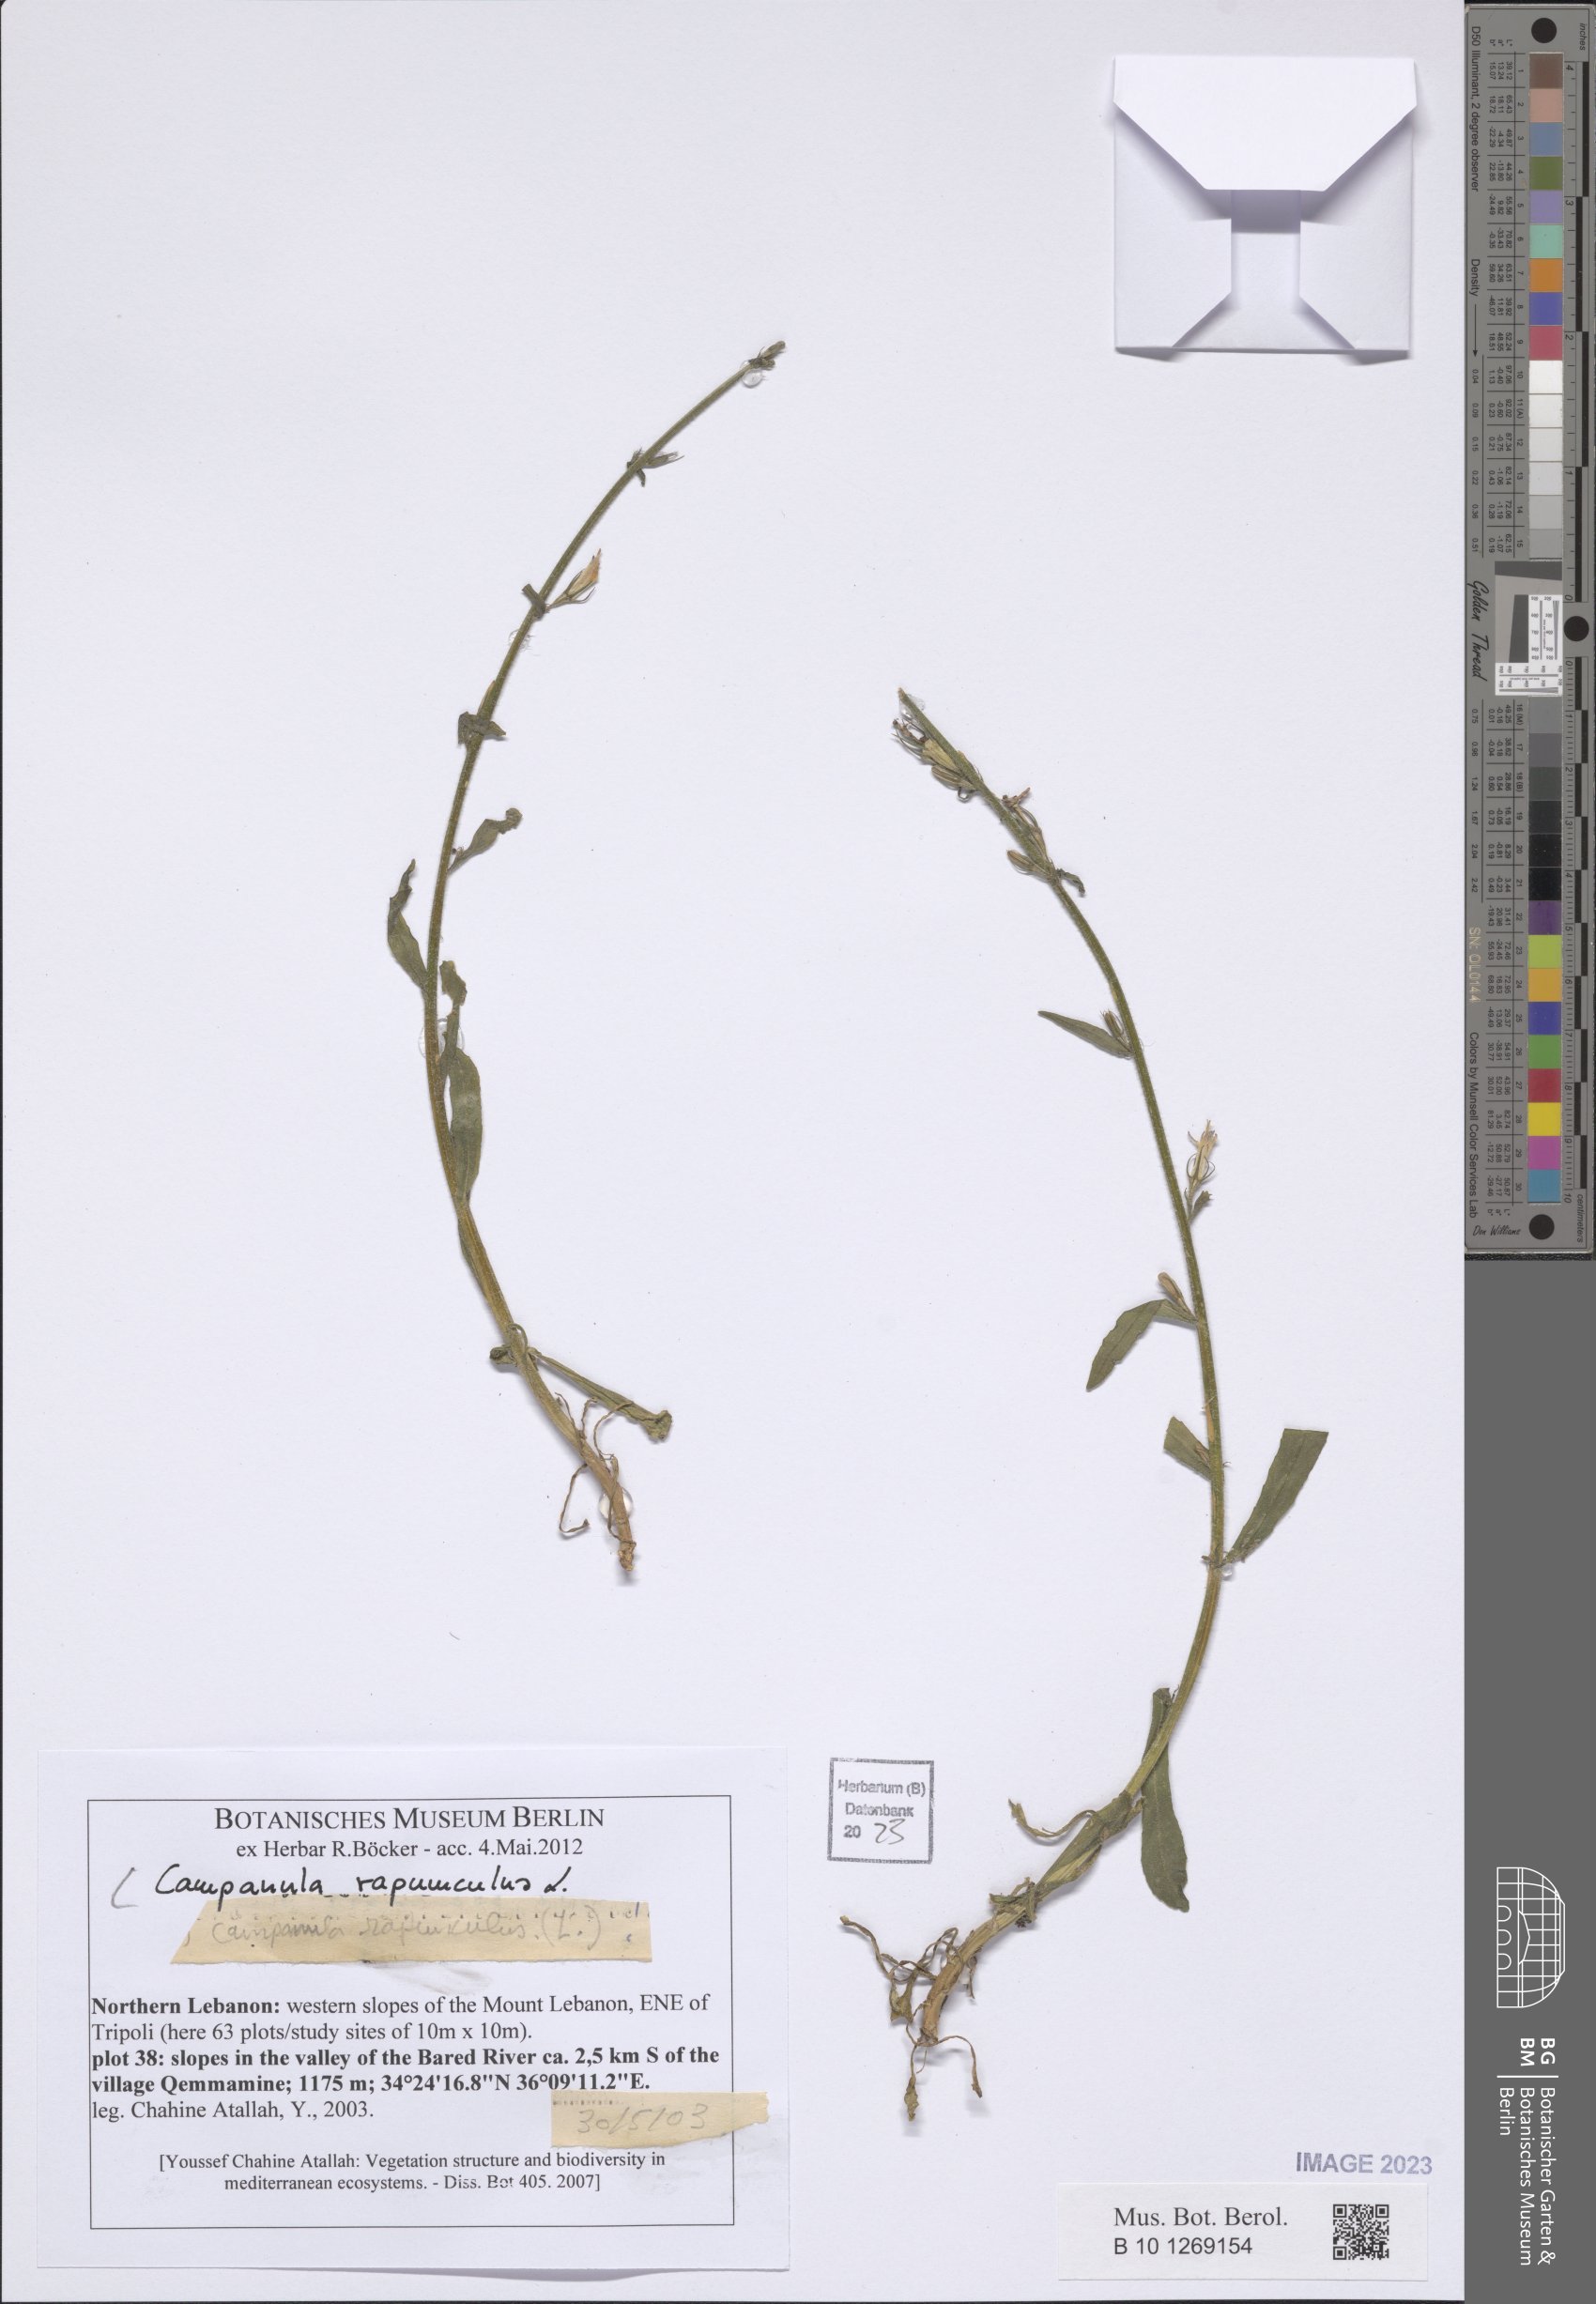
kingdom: Plantae
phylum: Tracheophyta
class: Magnoliopsida
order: Asterales
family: Campanulaceae
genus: Campanula
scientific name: Campanula rapunculus
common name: Rampion bellflower
